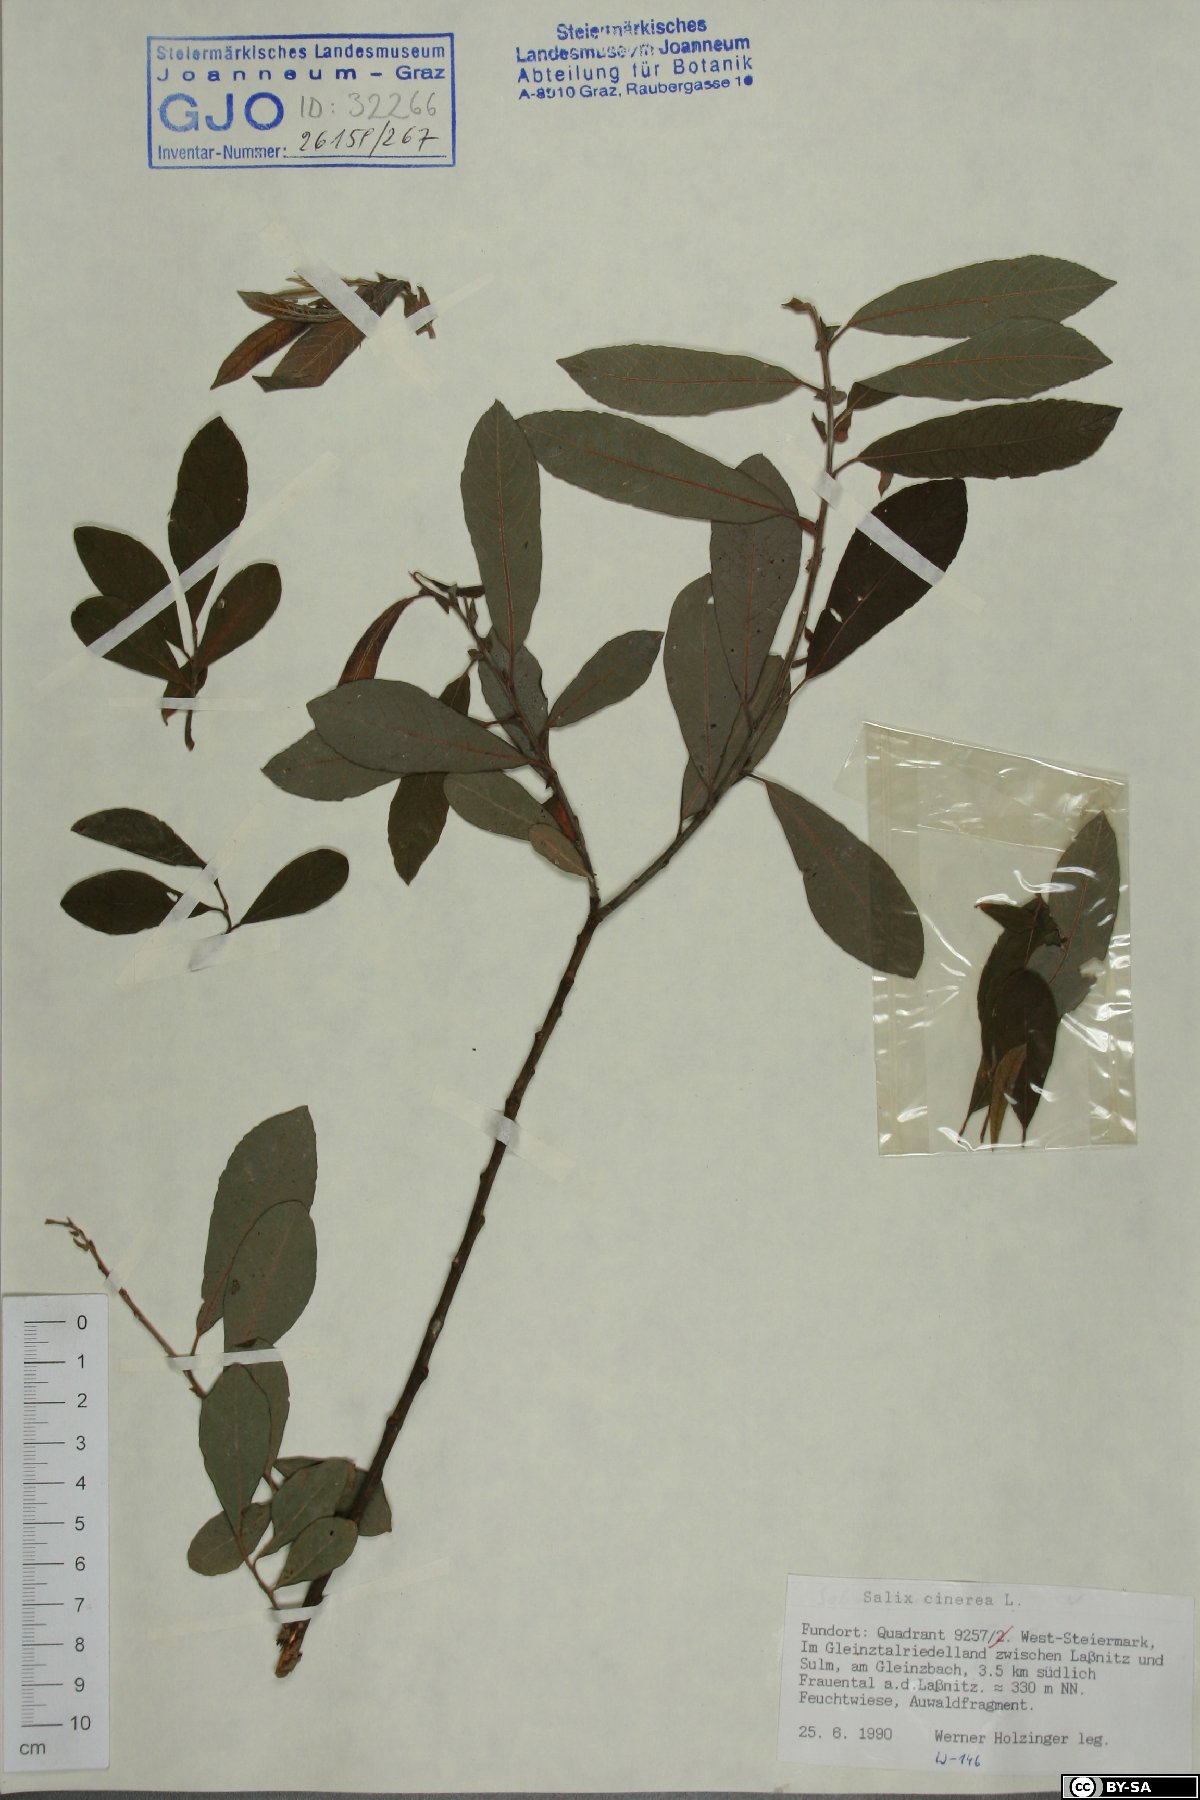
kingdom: Plantae
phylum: Tracheophyta
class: Magnoliopsida
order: Malpighiales
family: Salicaceae
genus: Salix
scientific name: Salix cinerea
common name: Common sallow
